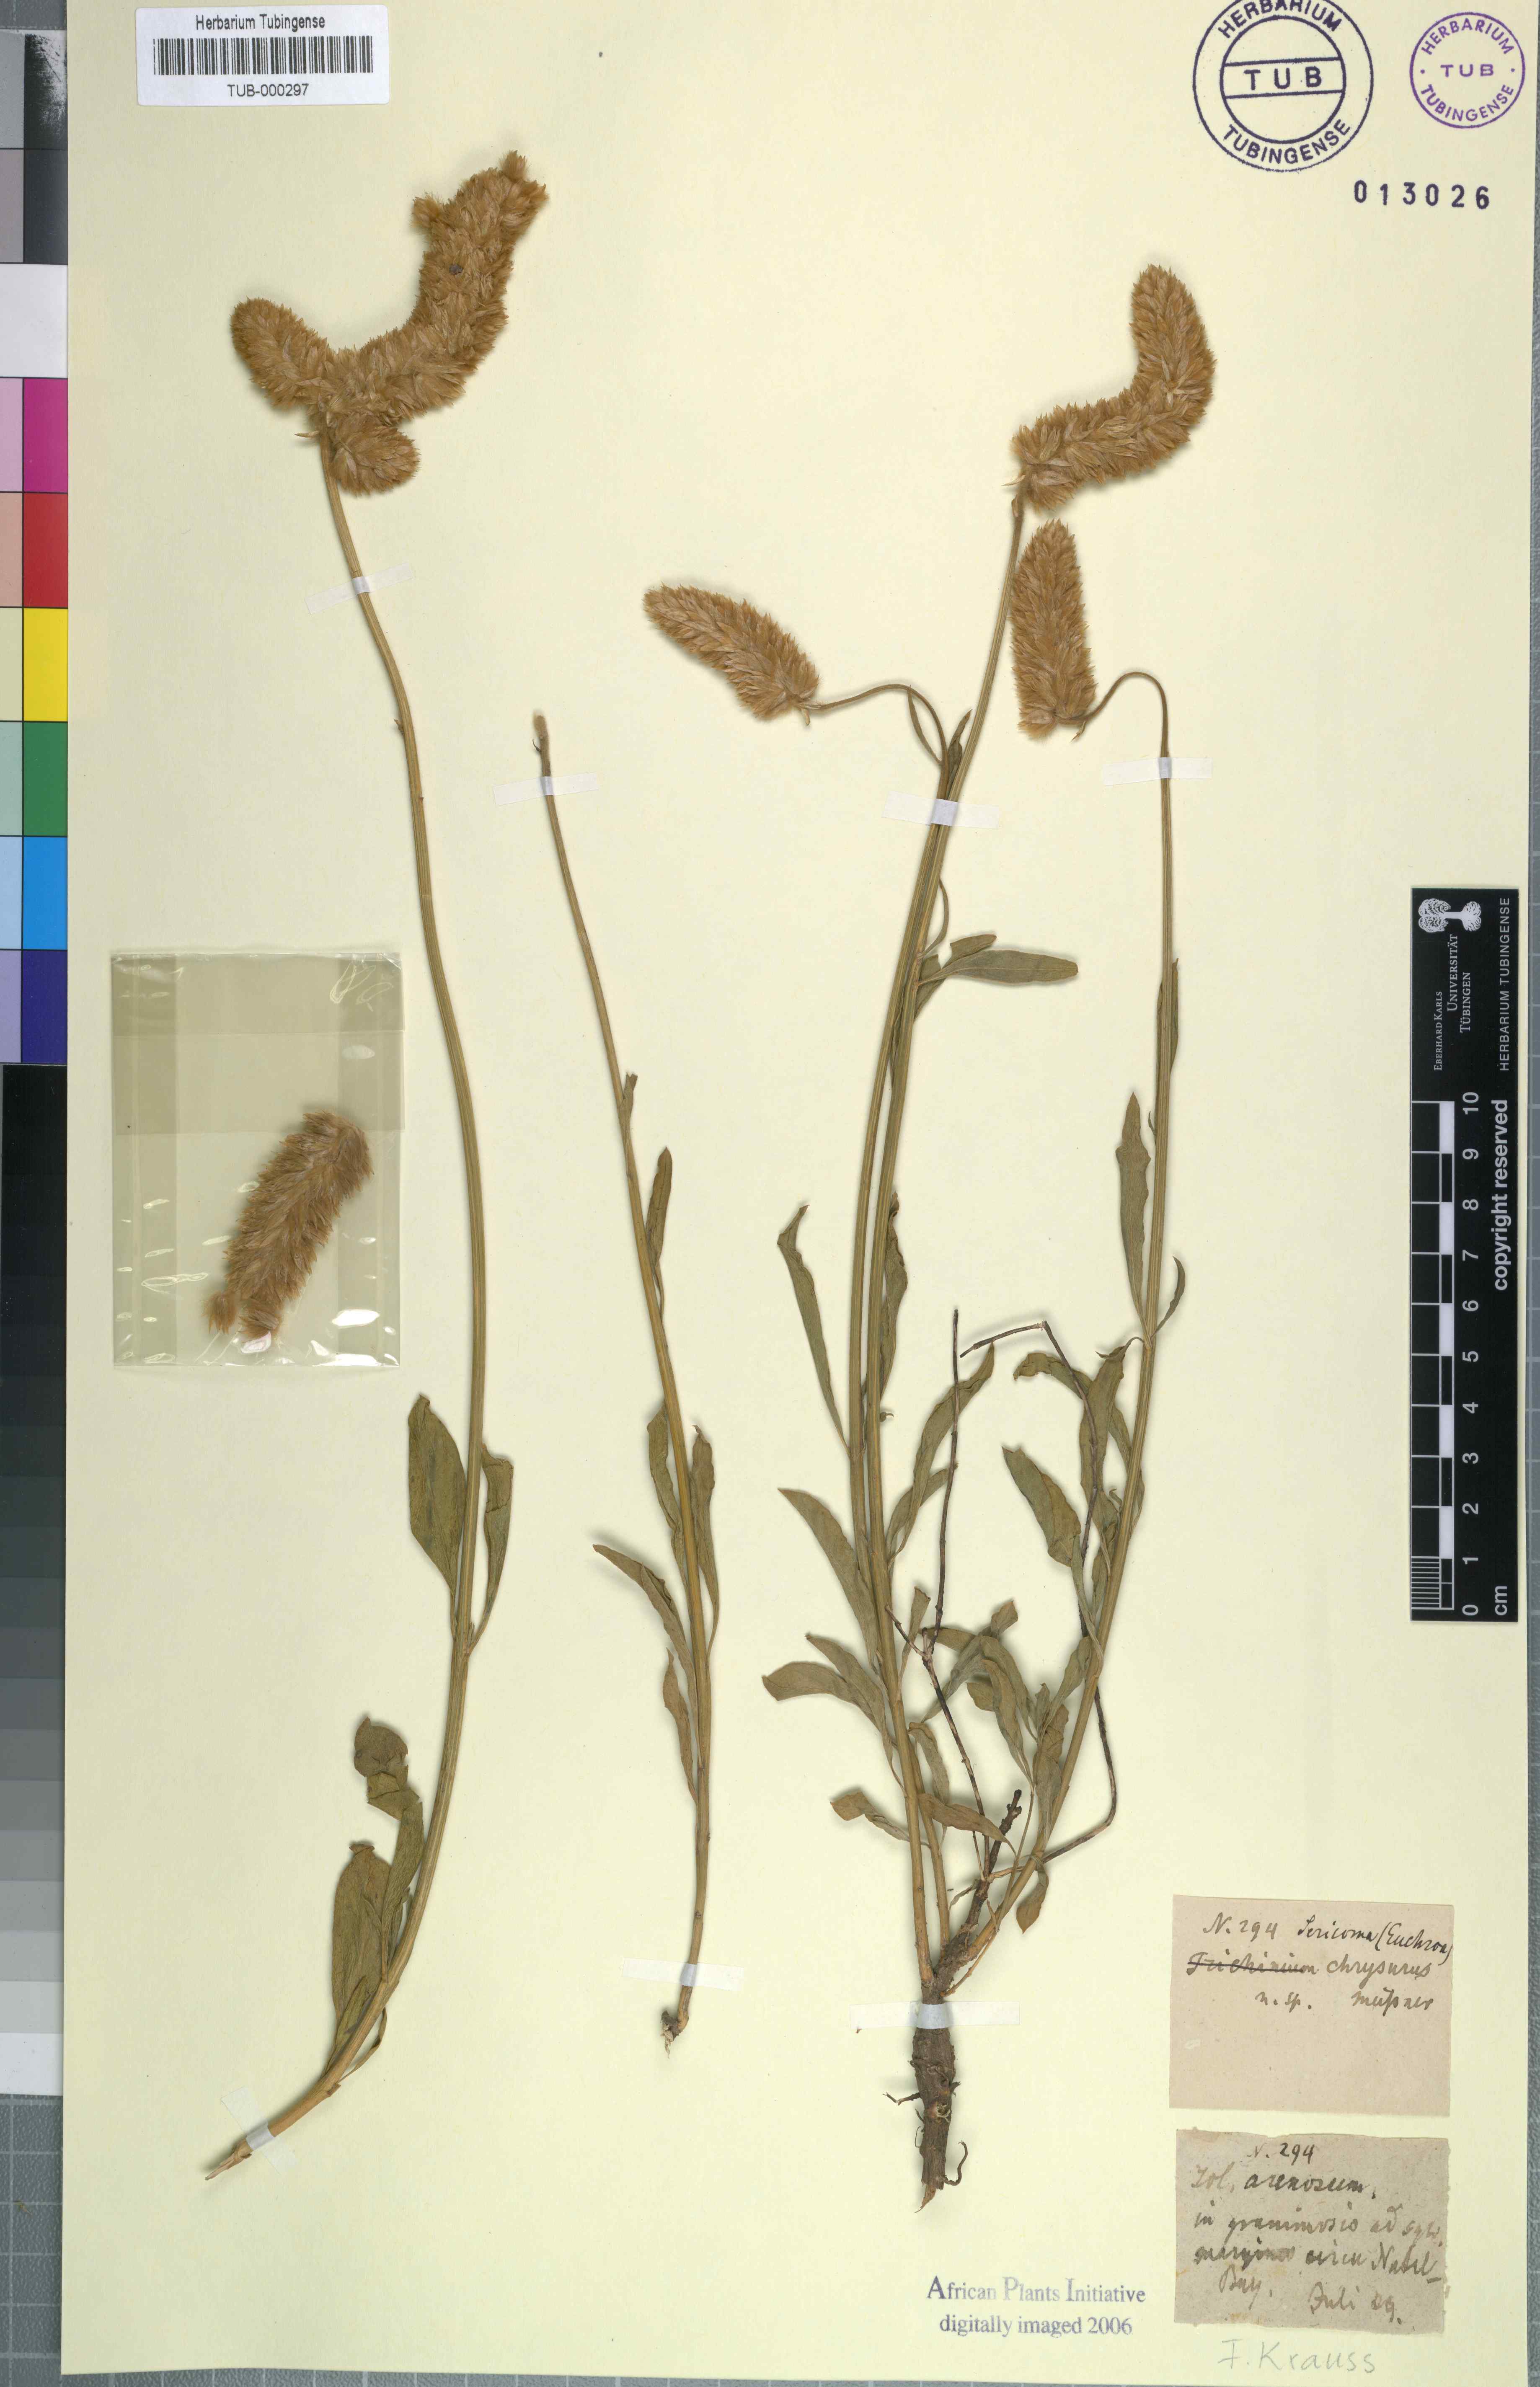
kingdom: Plantae
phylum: Tracheophyta
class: Magnoliopsida
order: Caryophyllales
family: Amaranthaceae
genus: Cyphocarpa
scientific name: Cyphocarpa trichinoides
